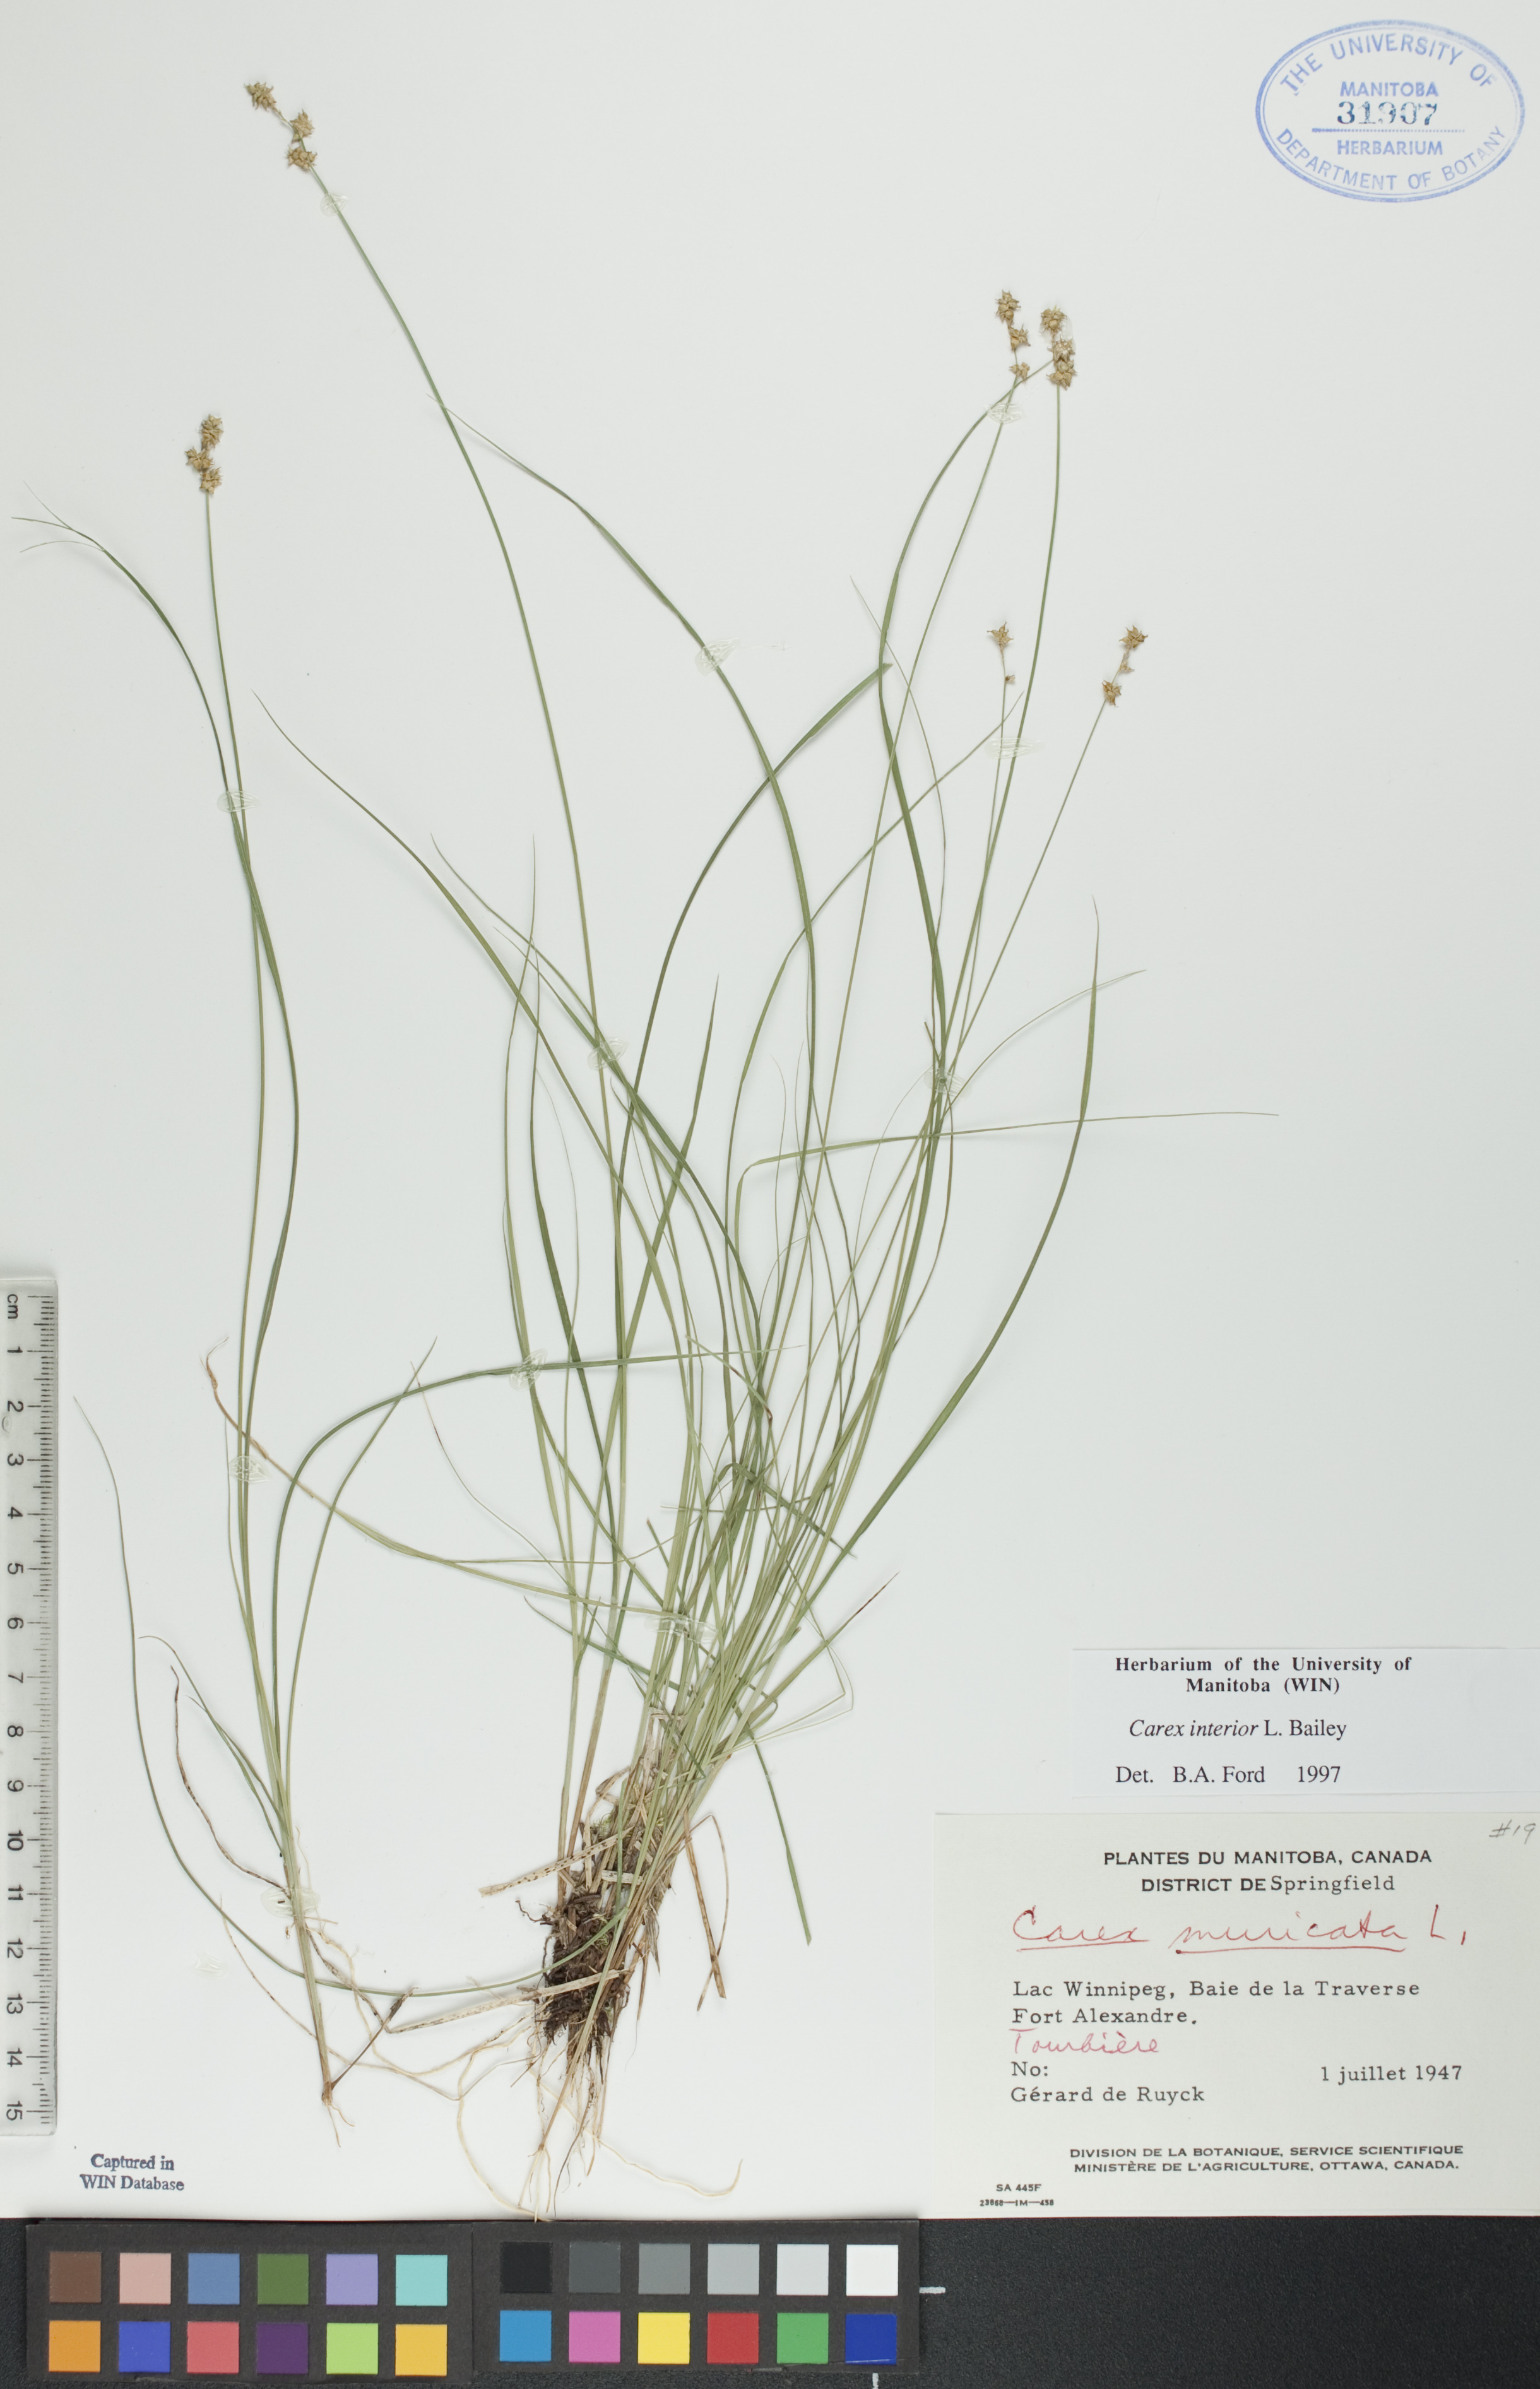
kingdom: Plantae
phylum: Tracheophyta
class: Liliopsida
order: Poales
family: Cyperaceae
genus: Carex
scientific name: Carex muricata
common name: Rough sedge
